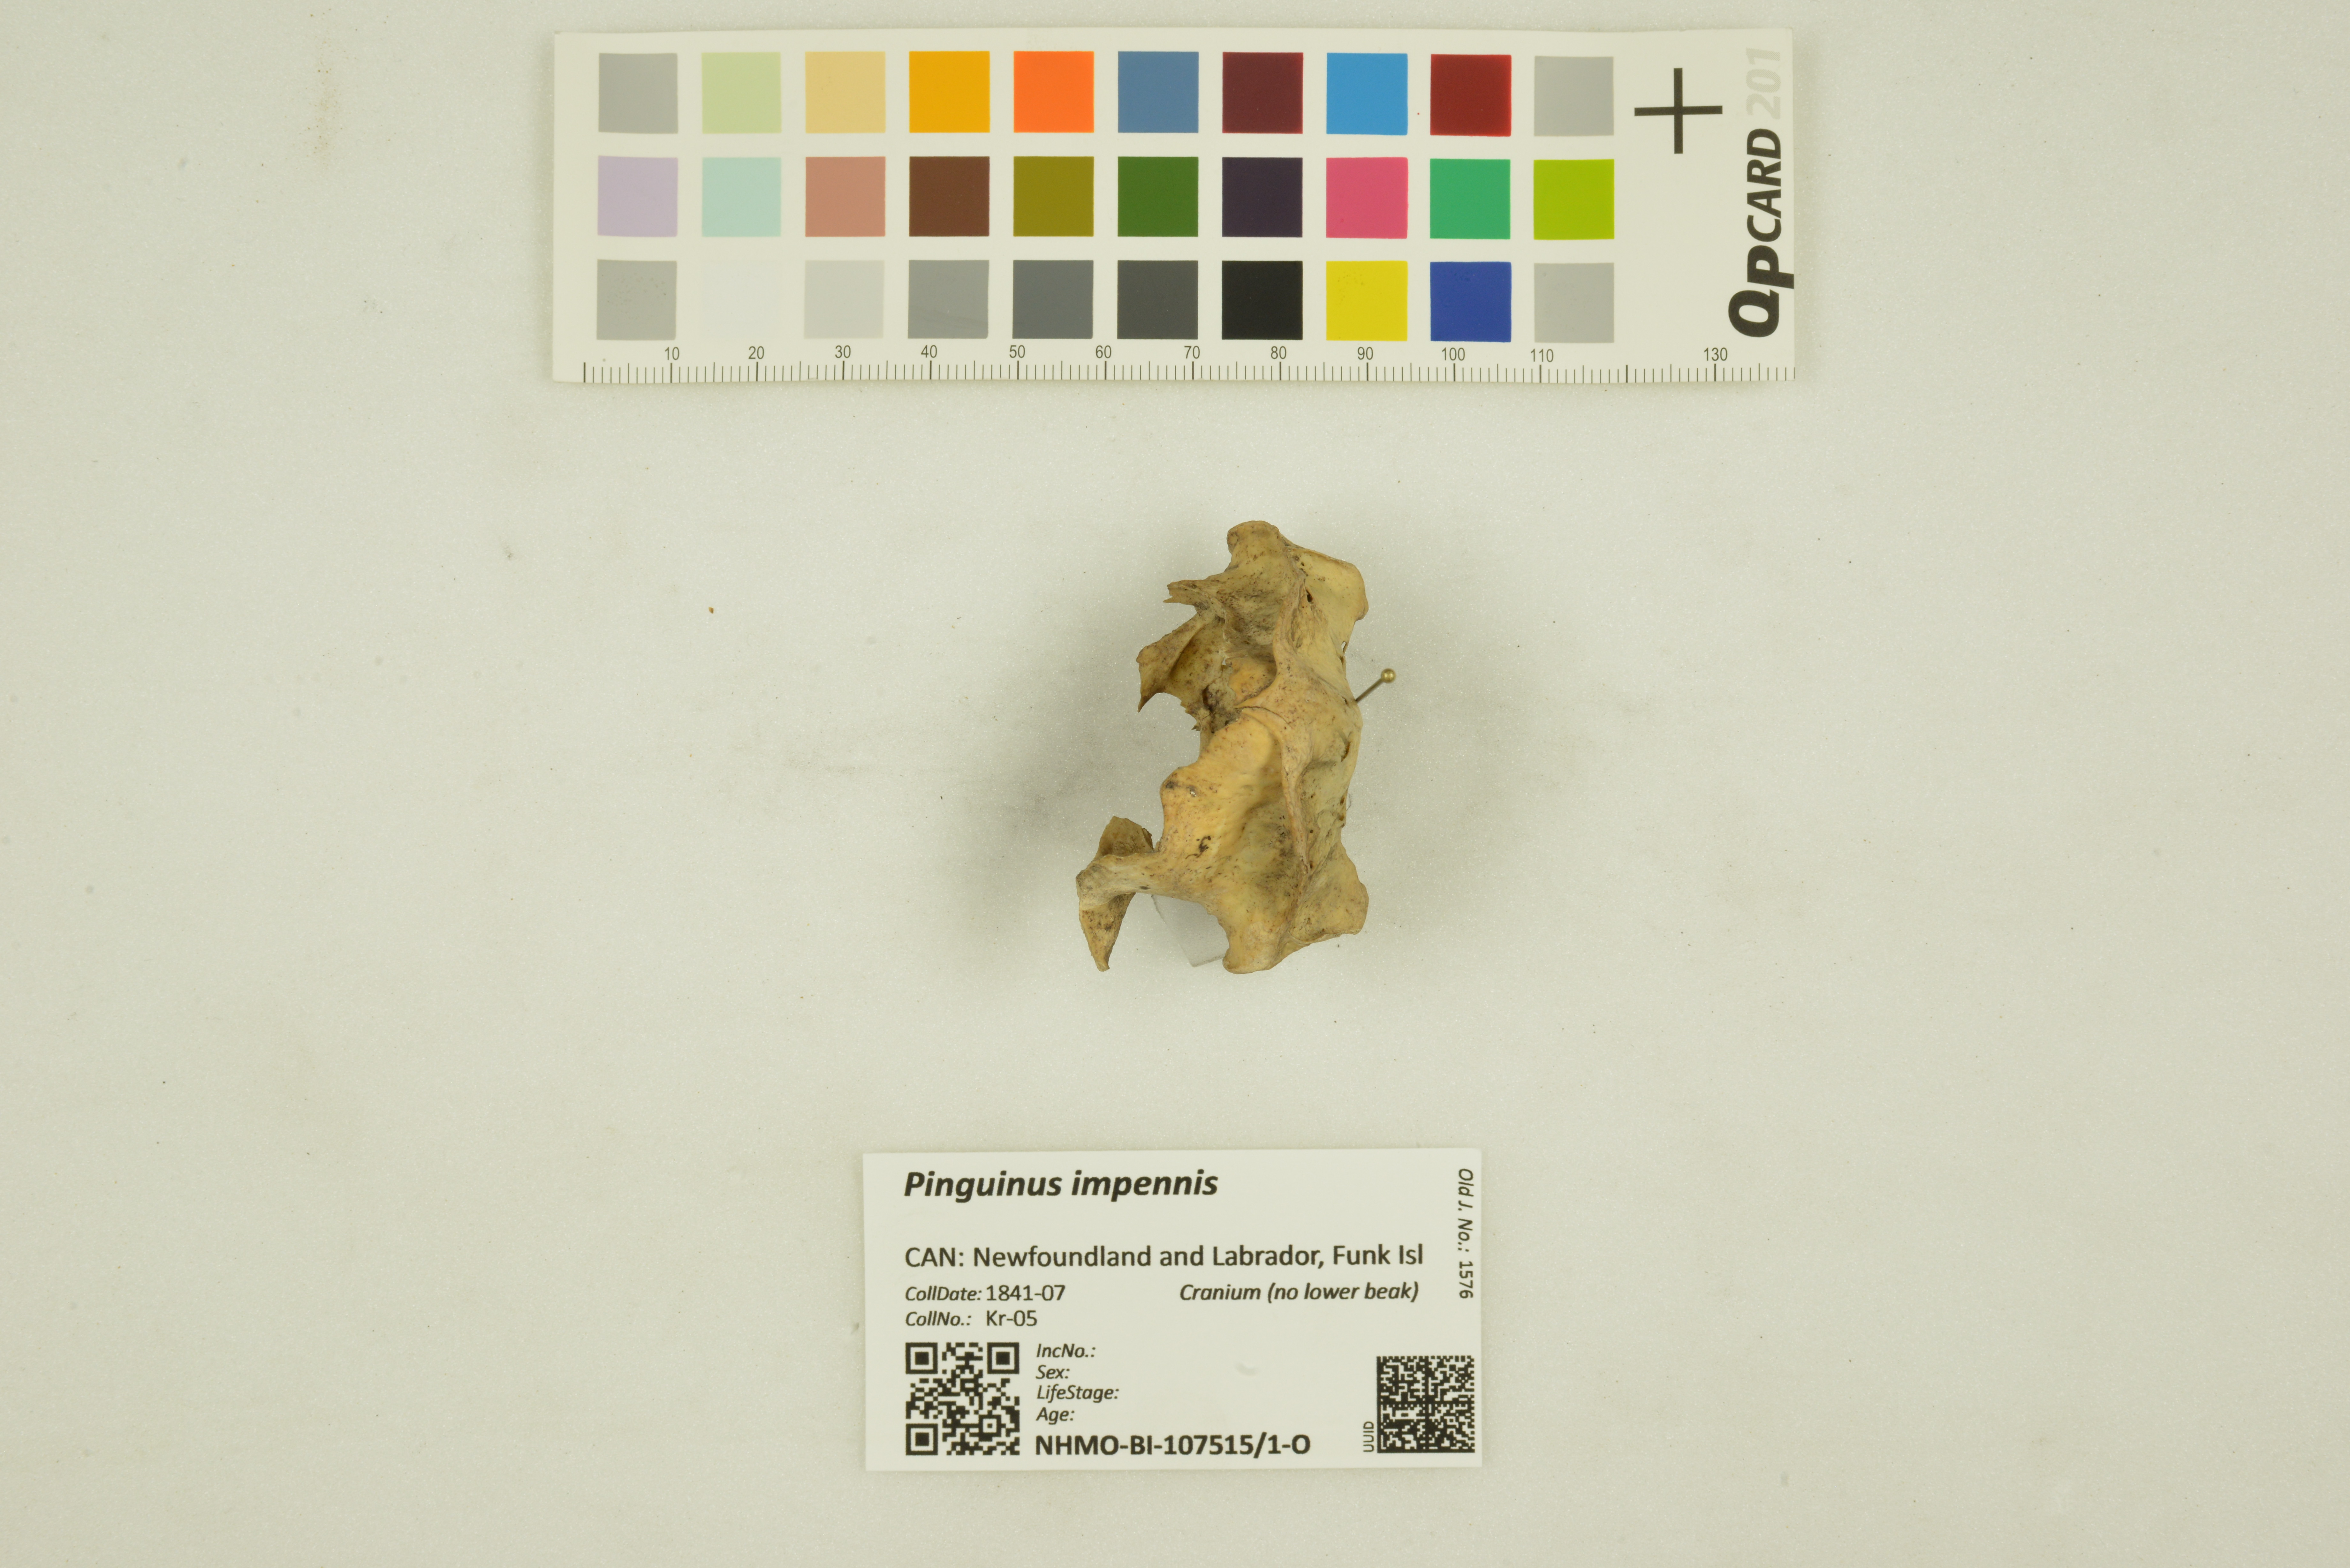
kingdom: Animalia
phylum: Chordata
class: Aves
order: Charadriiformes
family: Alcidae
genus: Pinguinus
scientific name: Pinguinus impennis
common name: Great auk
